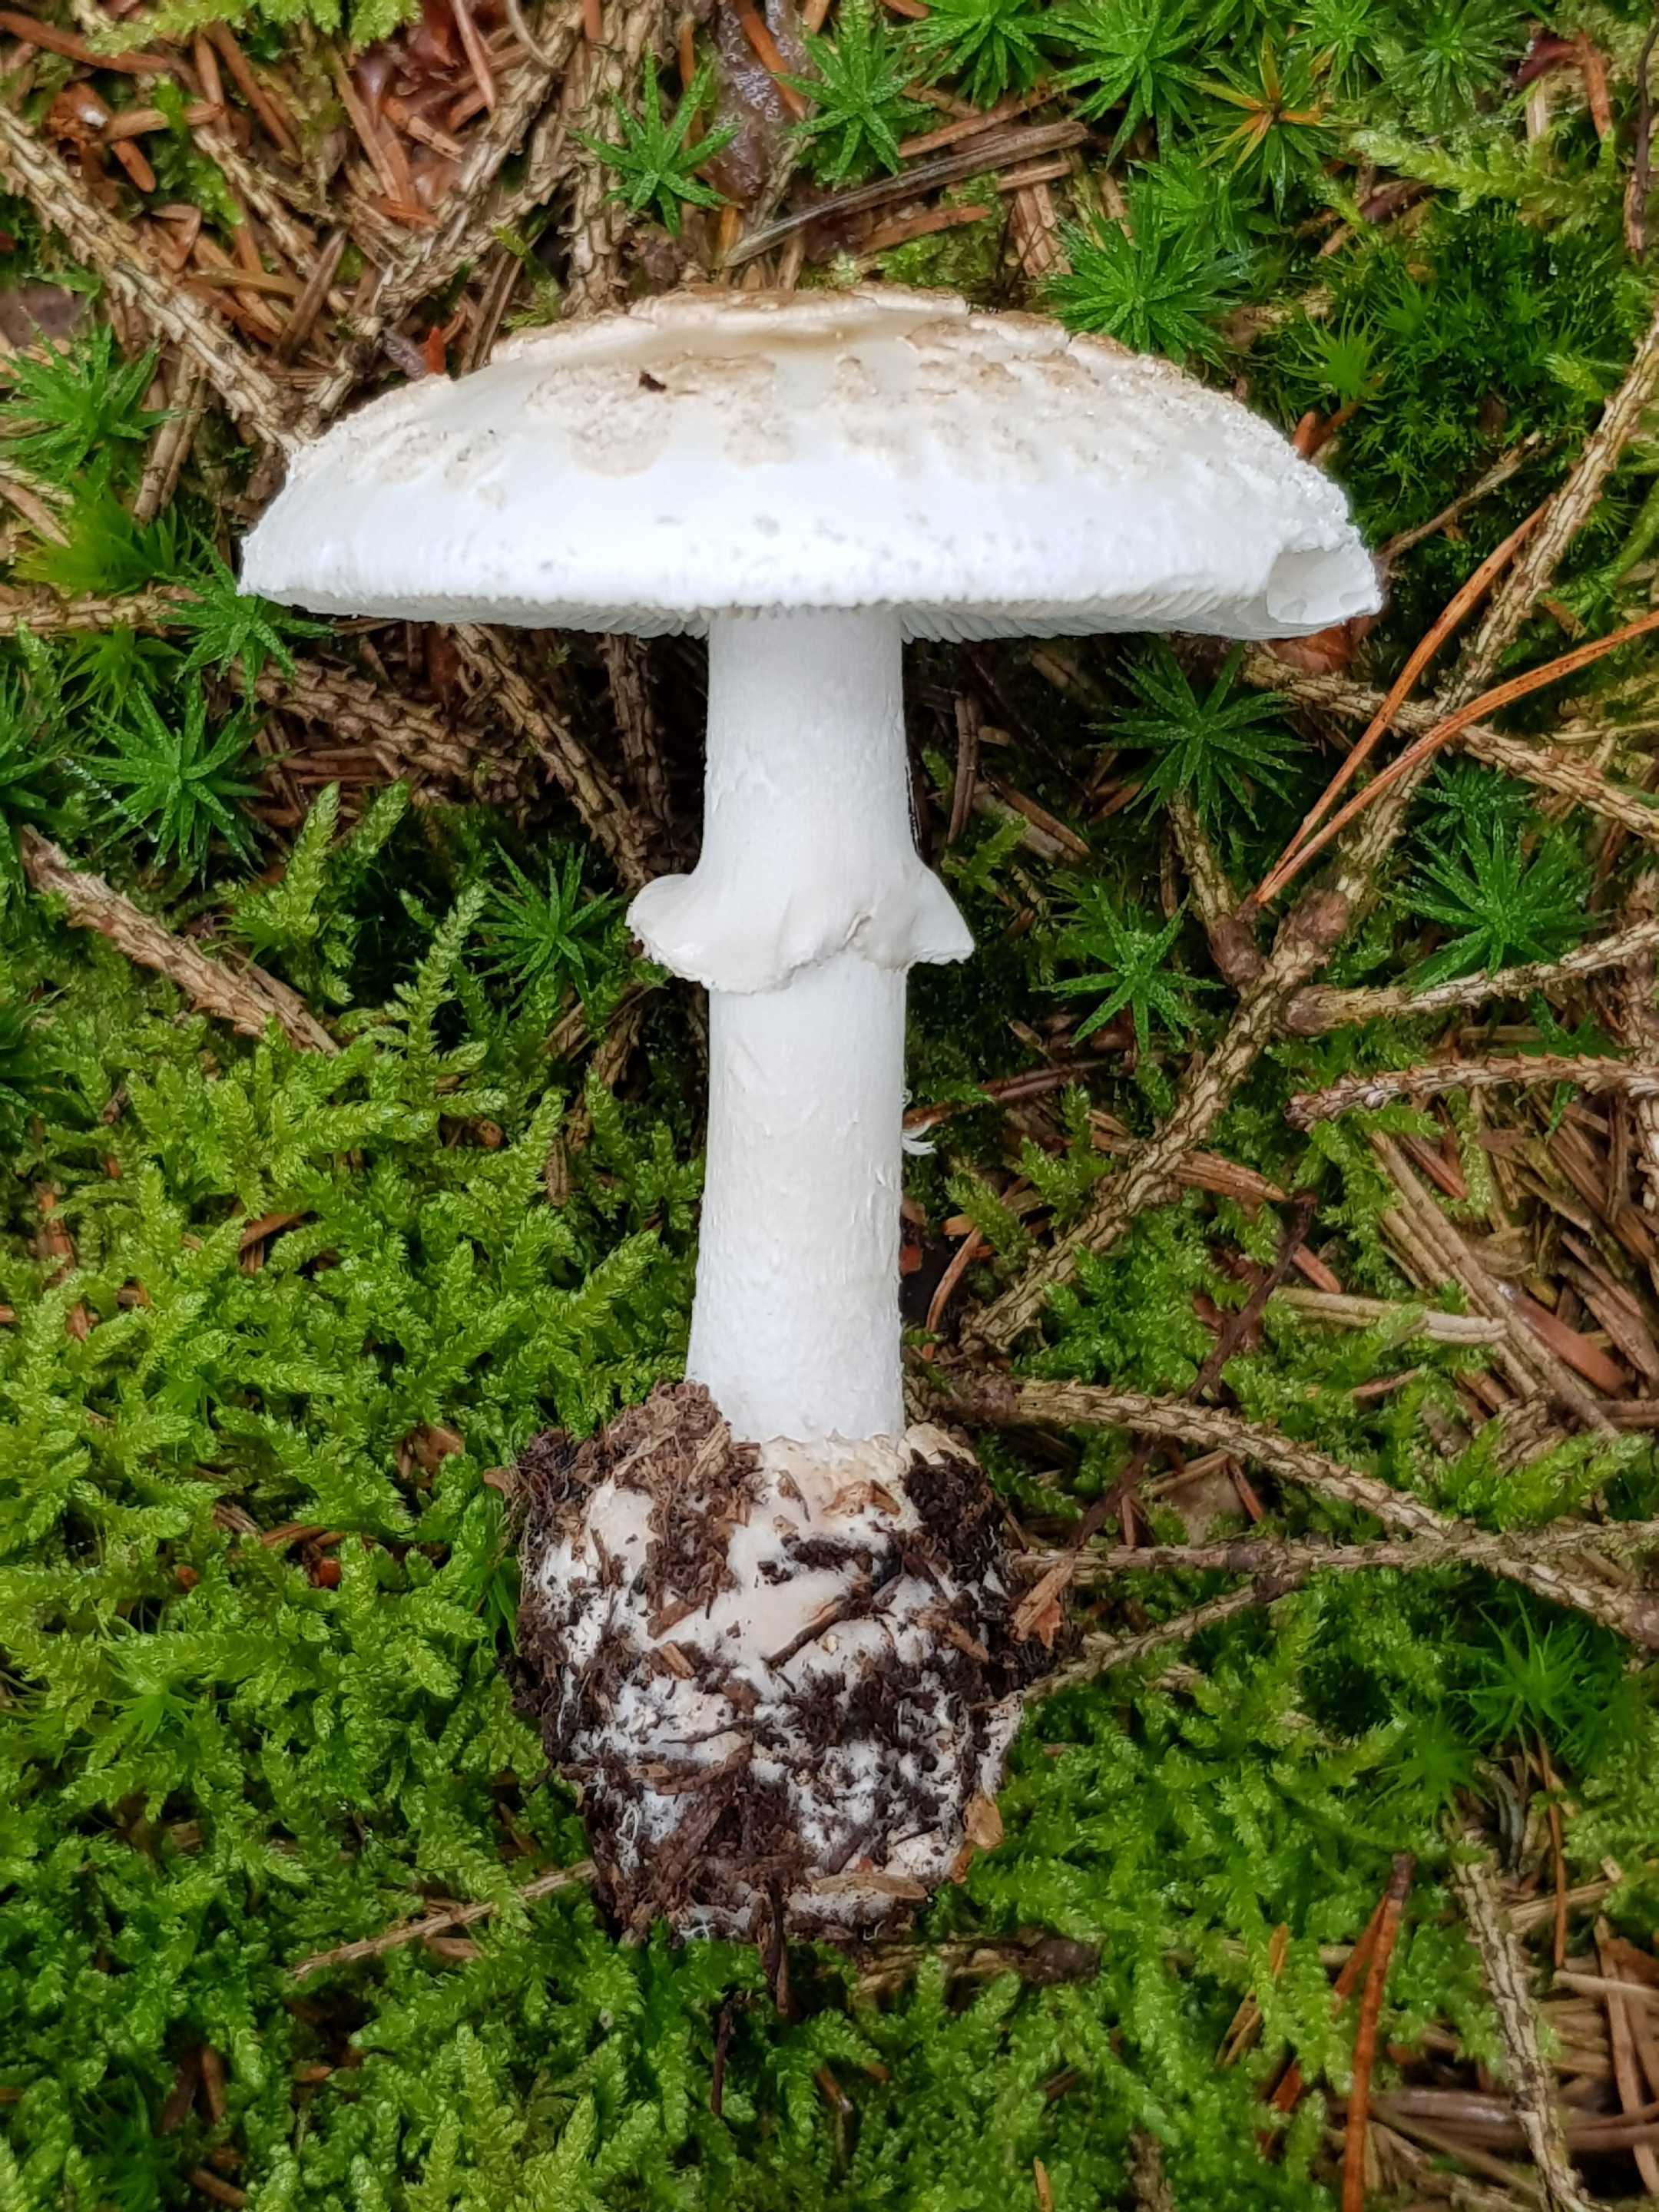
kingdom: Fungi
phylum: Basidiomycota
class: Agaricomycetes
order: Agaricales
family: Amanitaceae
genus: Amanita
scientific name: Amanita citrina
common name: False death-cap
